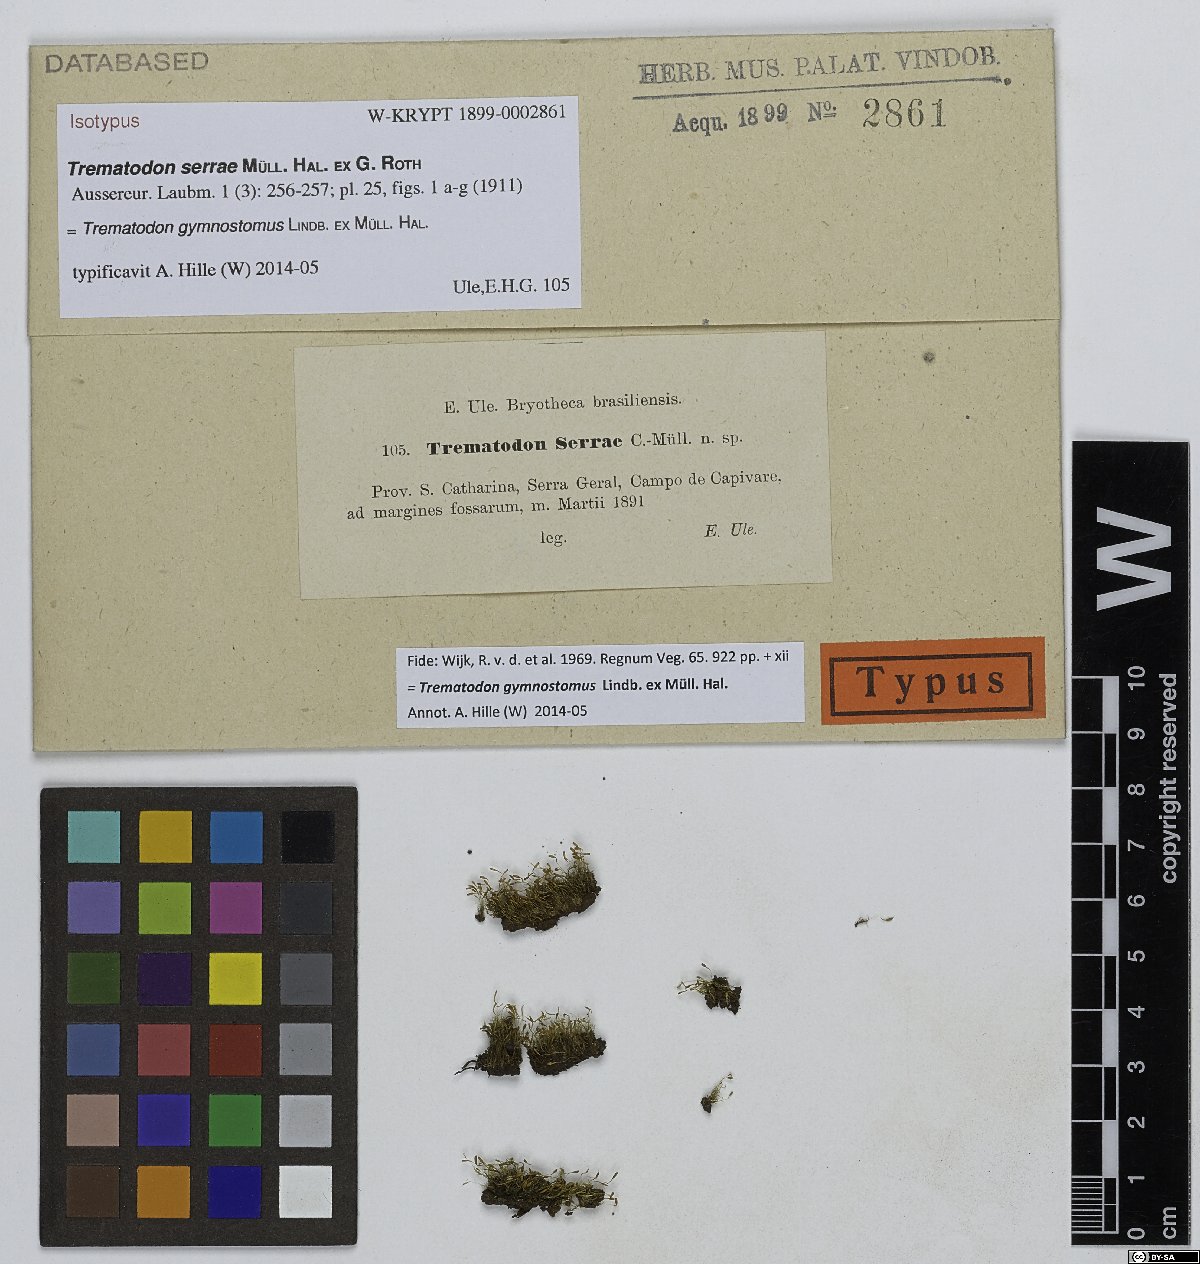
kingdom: Plantae
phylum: Bryophyta
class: Bryopsida
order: Dicranales
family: Bruchiaceae
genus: Trematodon
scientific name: Trematodon gymnostomus
